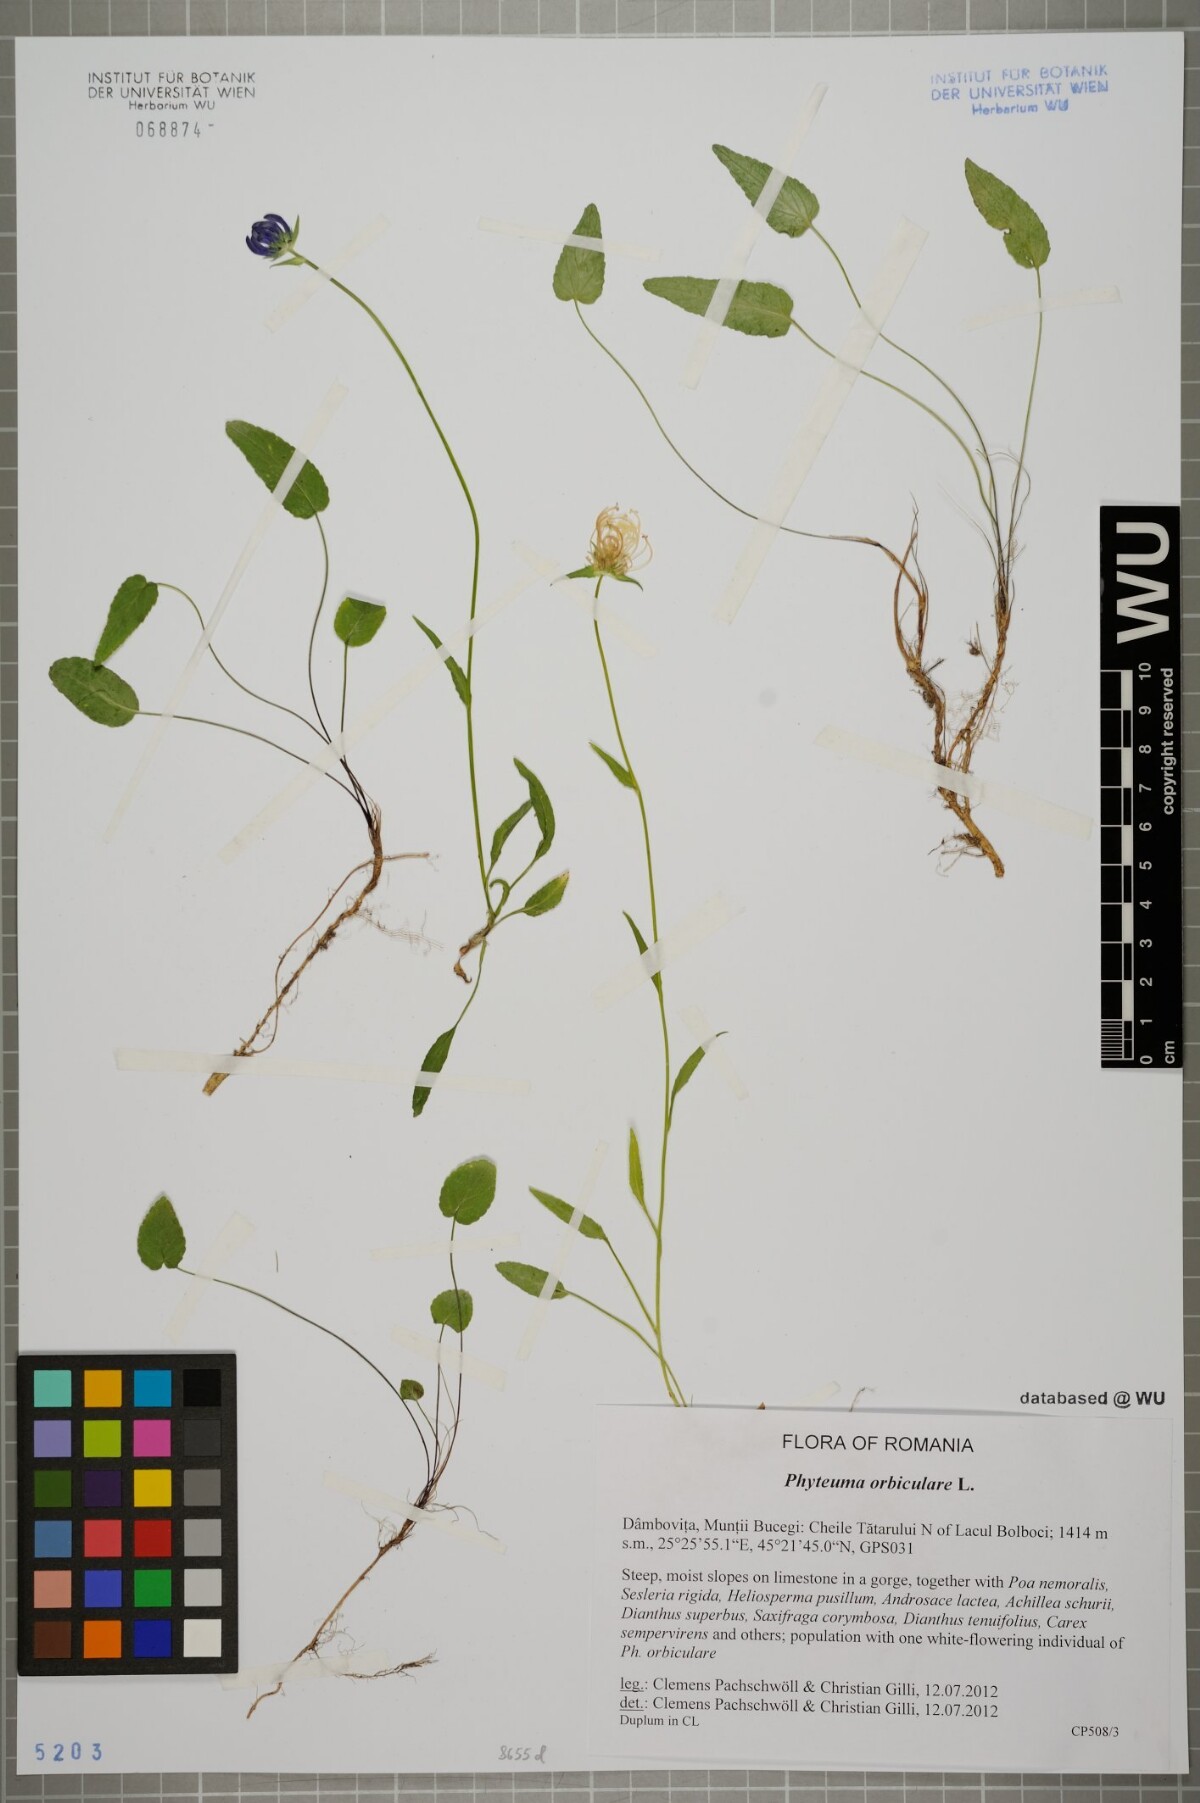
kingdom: Plantae
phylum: Tracheophyta
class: Magnoliopsida
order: Asterales
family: Campanulaceae
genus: Phyteuma
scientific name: Phyteuma orbiculare
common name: Round-headed rampion
